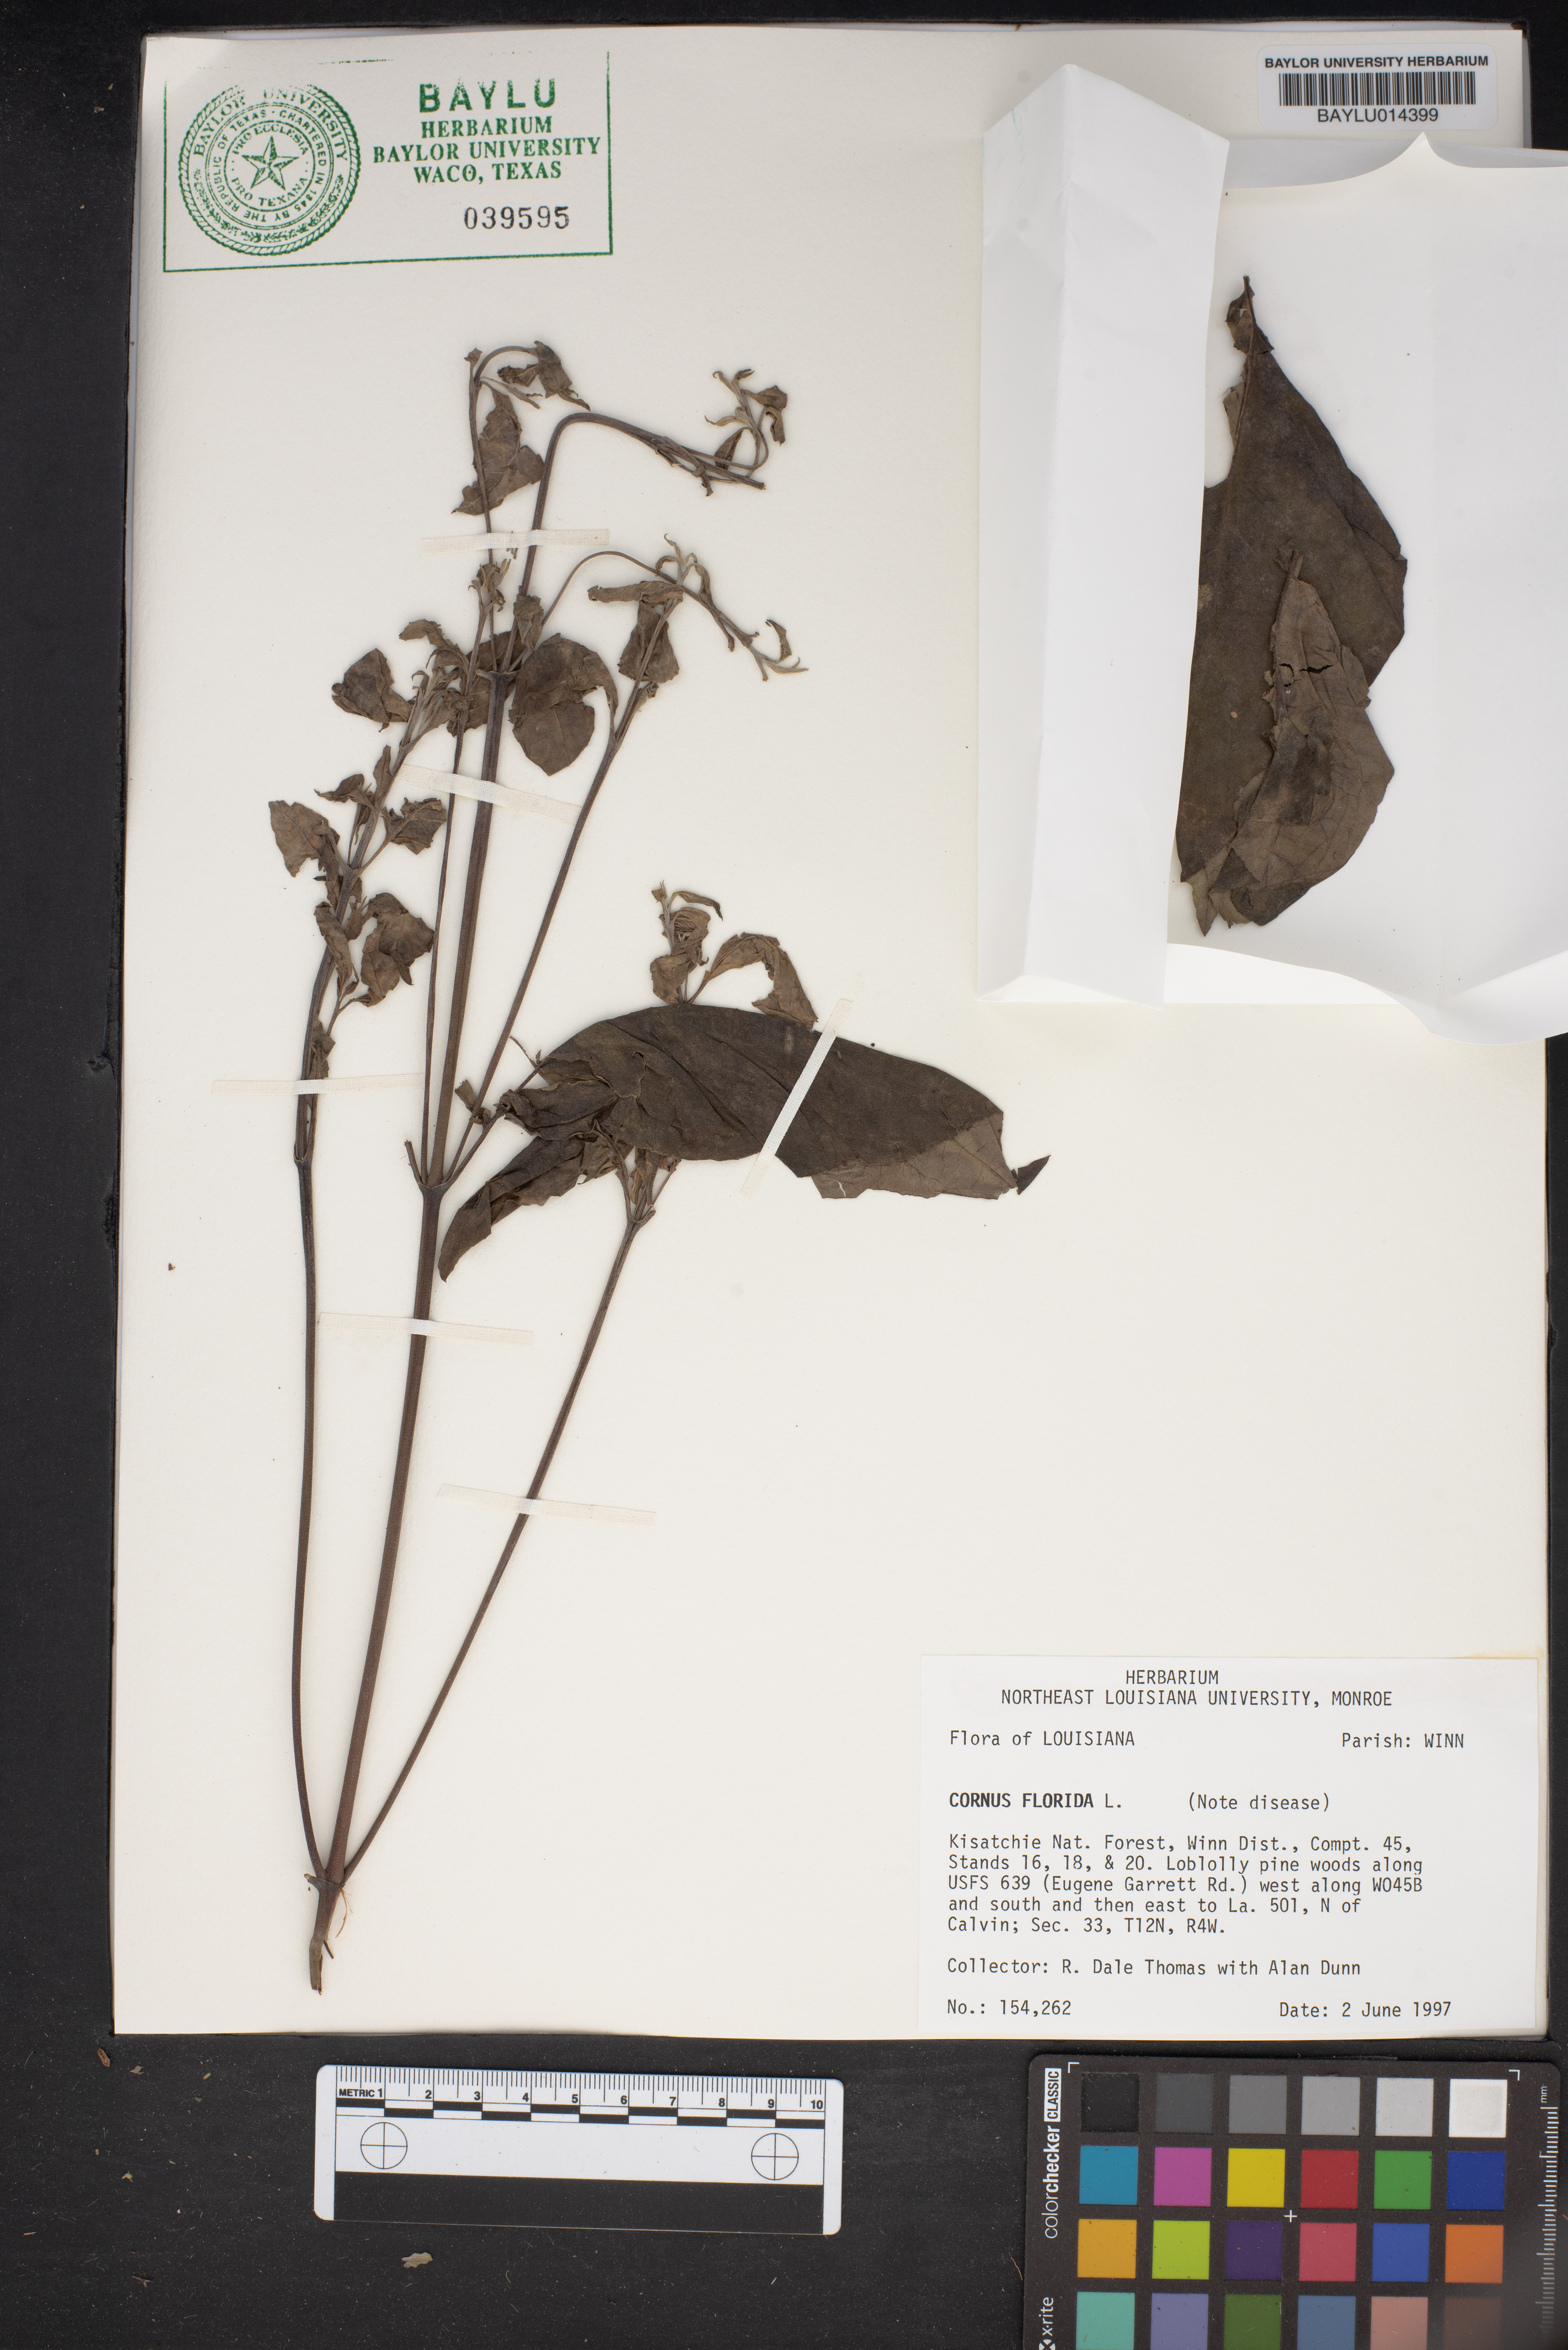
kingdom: Plantae
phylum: Tracheophyta
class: Magnoliopsida
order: Cornales
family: Cornaceae
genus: Cornus
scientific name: Cornus florida
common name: Flowering dogwood
